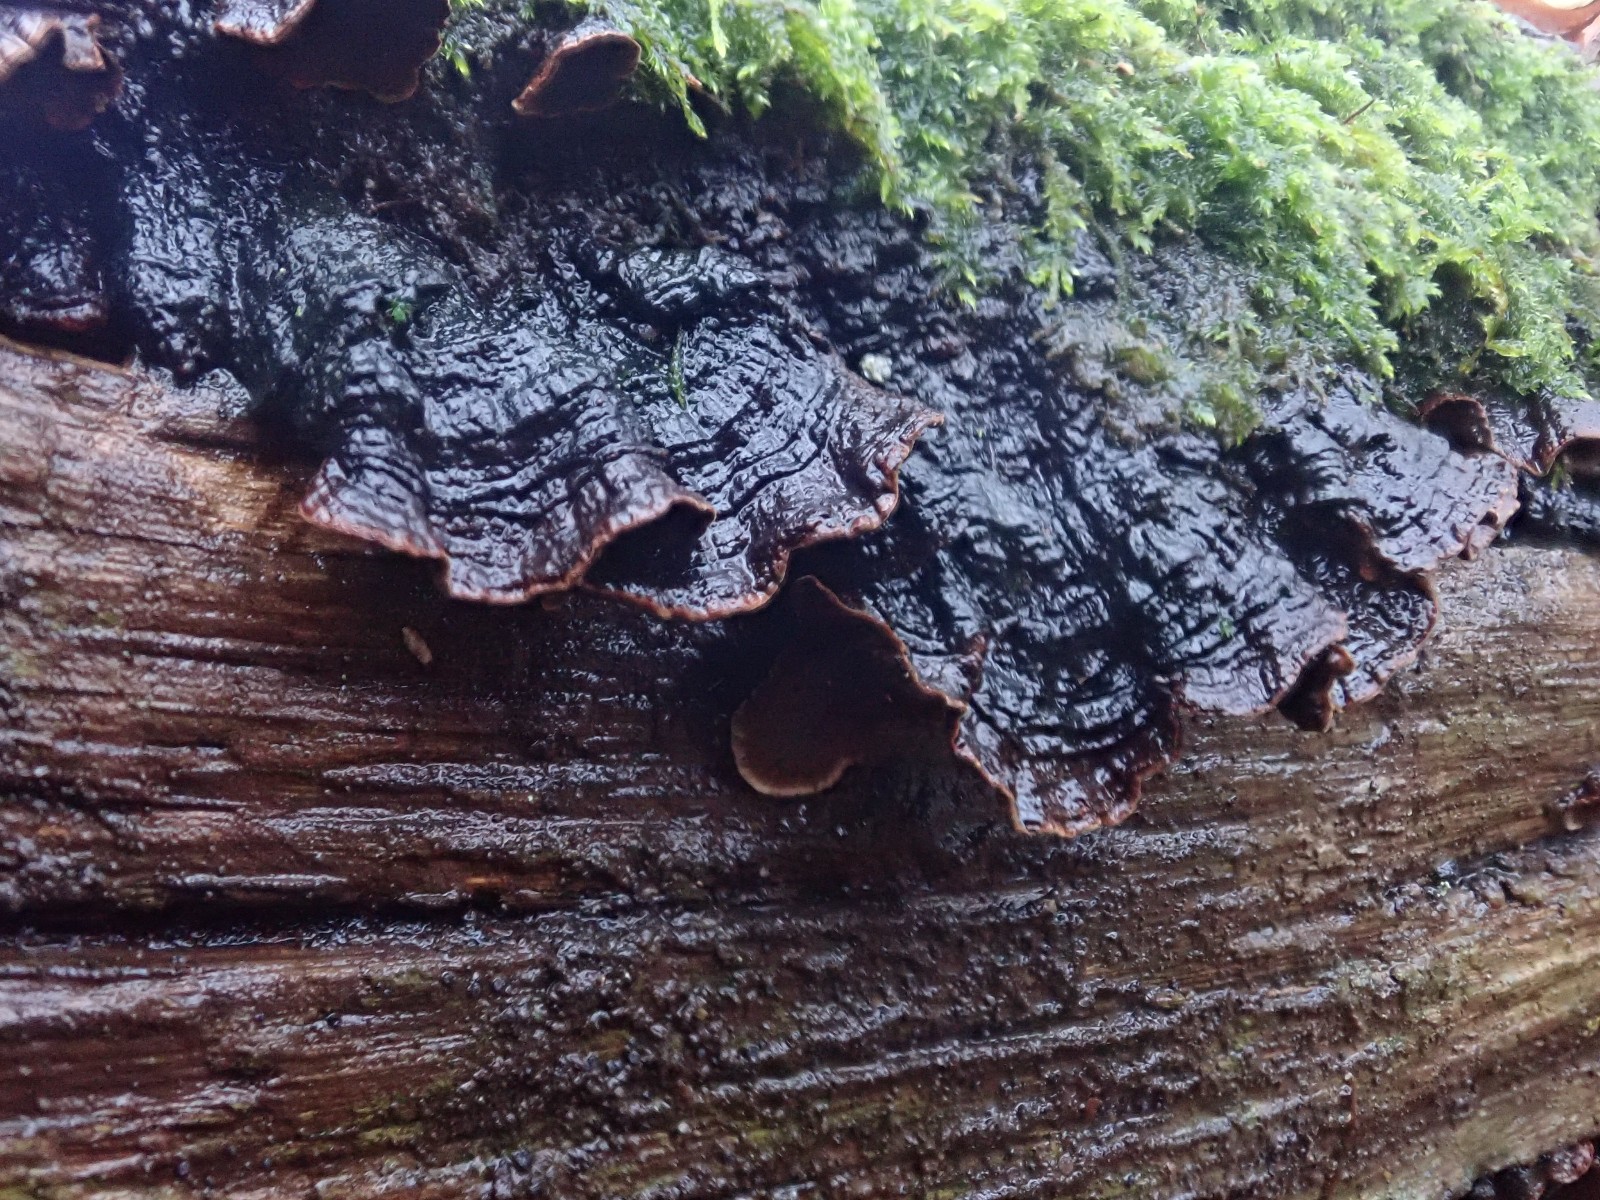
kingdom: Fungi
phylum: Basidiomycota
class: Agaricomycetes
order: Hymenochaetales
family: Hymenochaetaceae
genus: Hymenochaete
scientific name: Hymenochaete rubiginosa
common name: stiv ruslædersvamp
